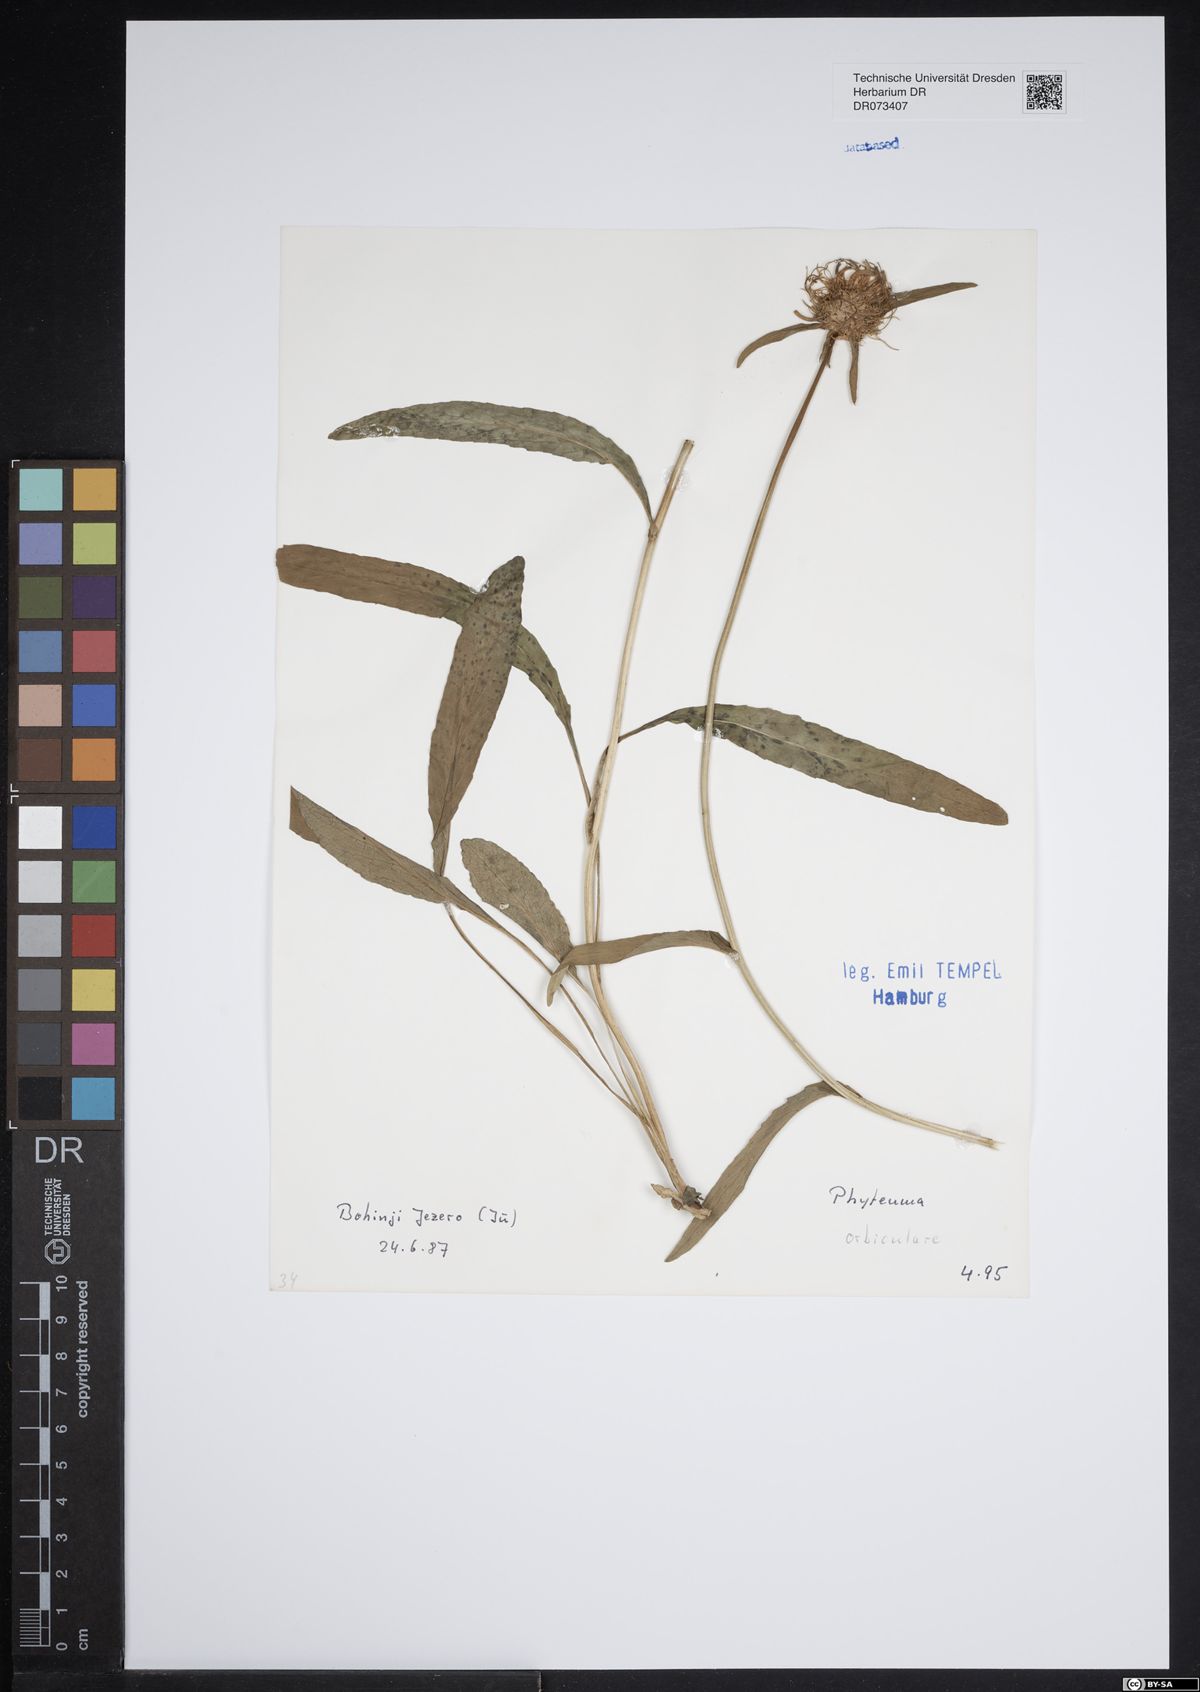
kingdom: Plantae
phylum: Tracheophyta
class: Magnoliopsida
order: Asterales
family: Campanulaceae
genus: Phyteuma
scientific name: Phyteuma orbiculare
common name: Round-headed rampion
